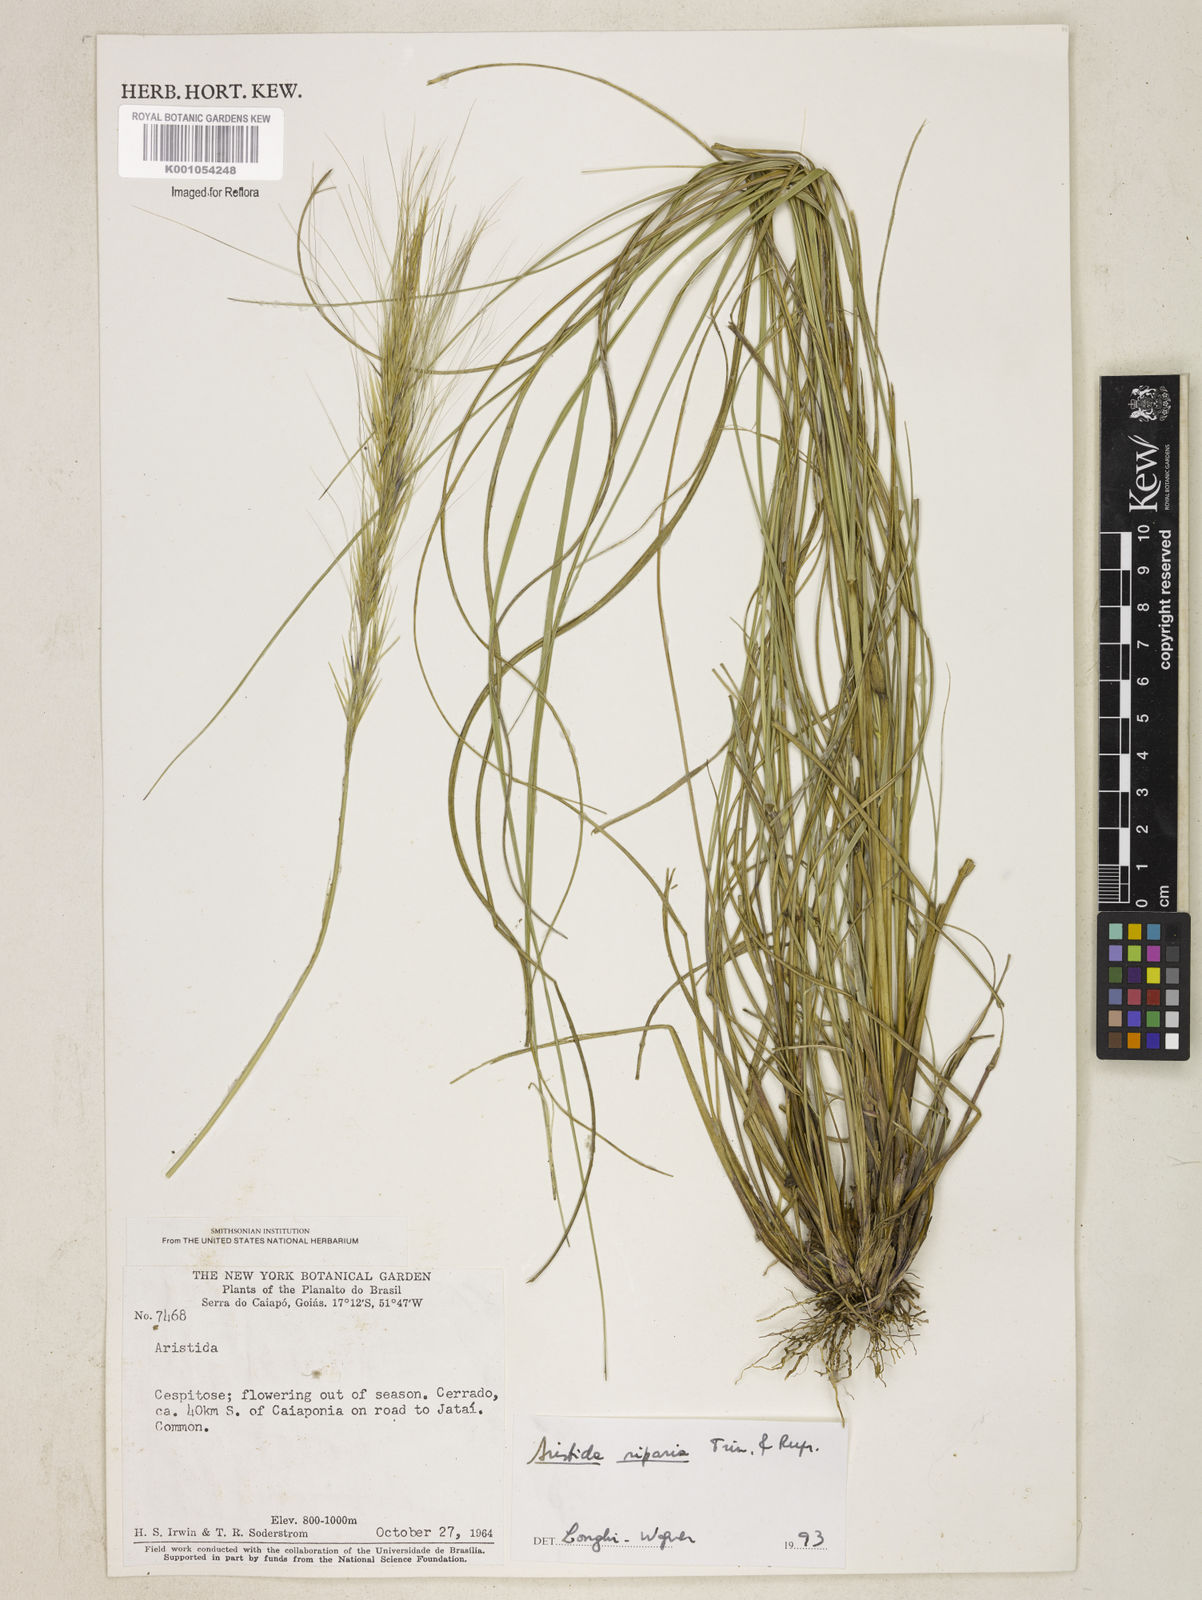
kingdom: Plantae
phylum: Tracheophyta
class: Liliopsida
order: Poales
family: Poaceae
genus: Aristida
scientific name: Aristida riparia
